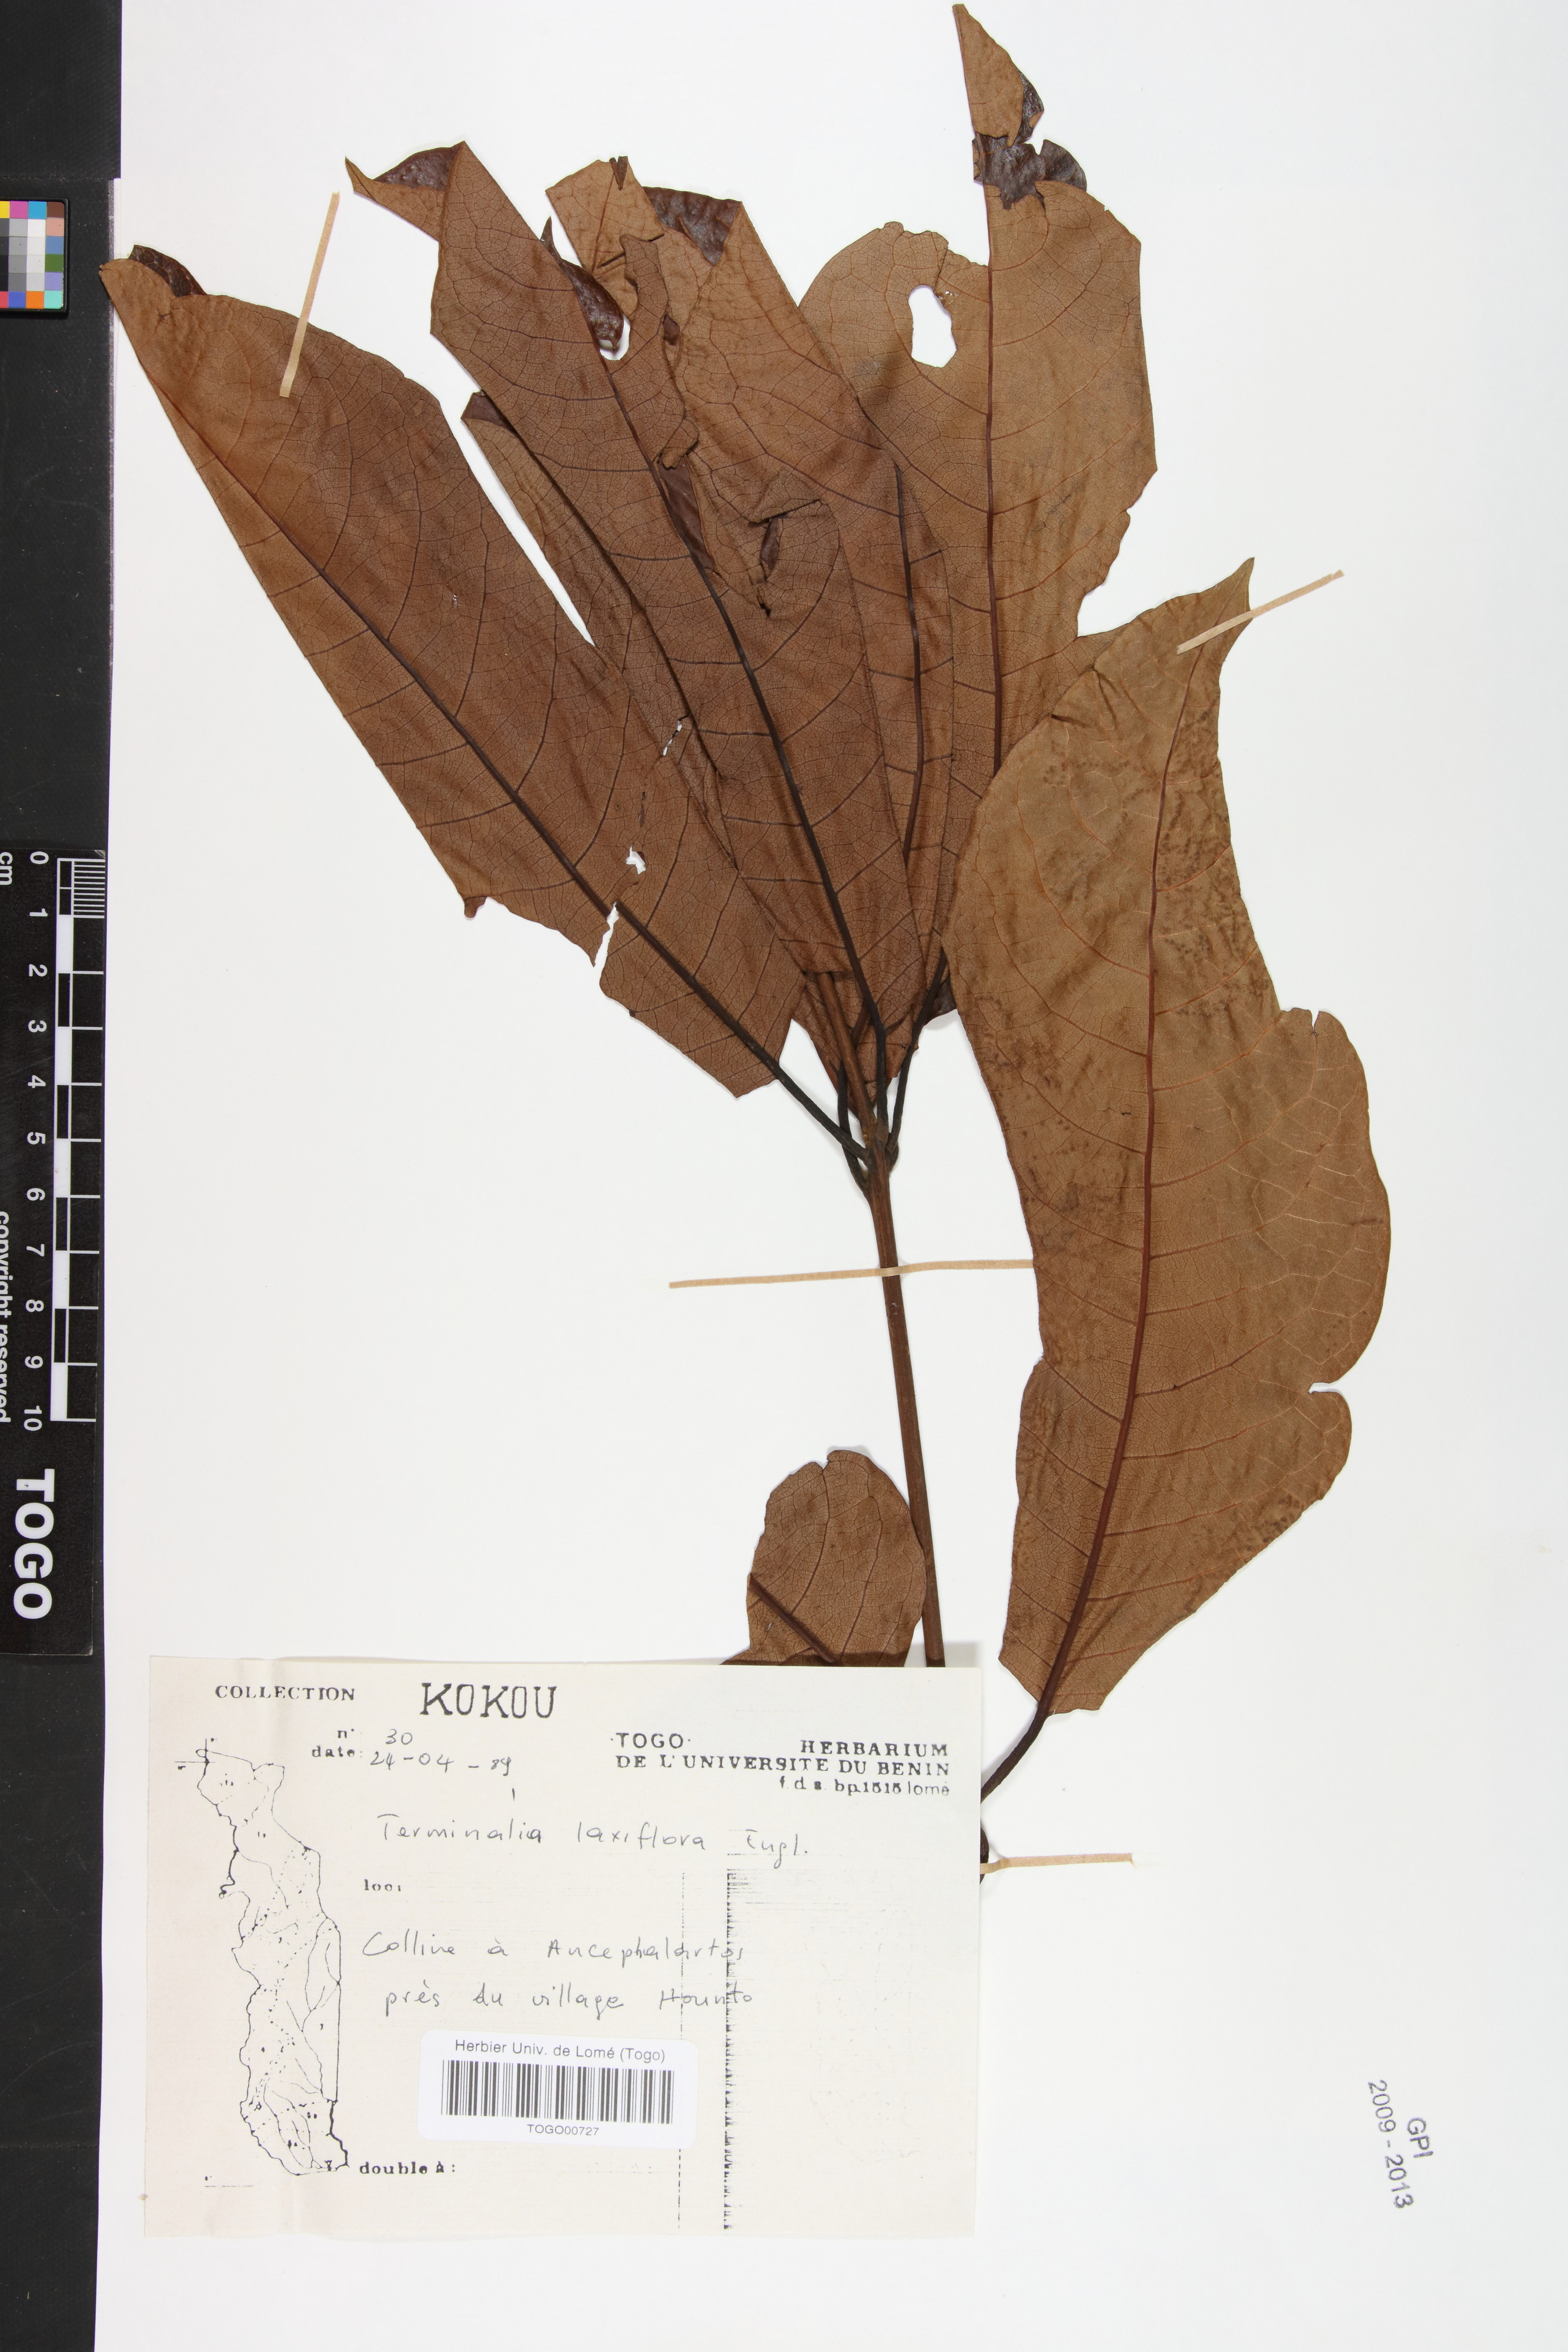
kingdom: Plantae
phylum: Tracheophyta
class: Magnoliopsida
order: Myrtales
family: Combretaceae
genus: Terminalia
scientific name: Terminalia laxiflora
